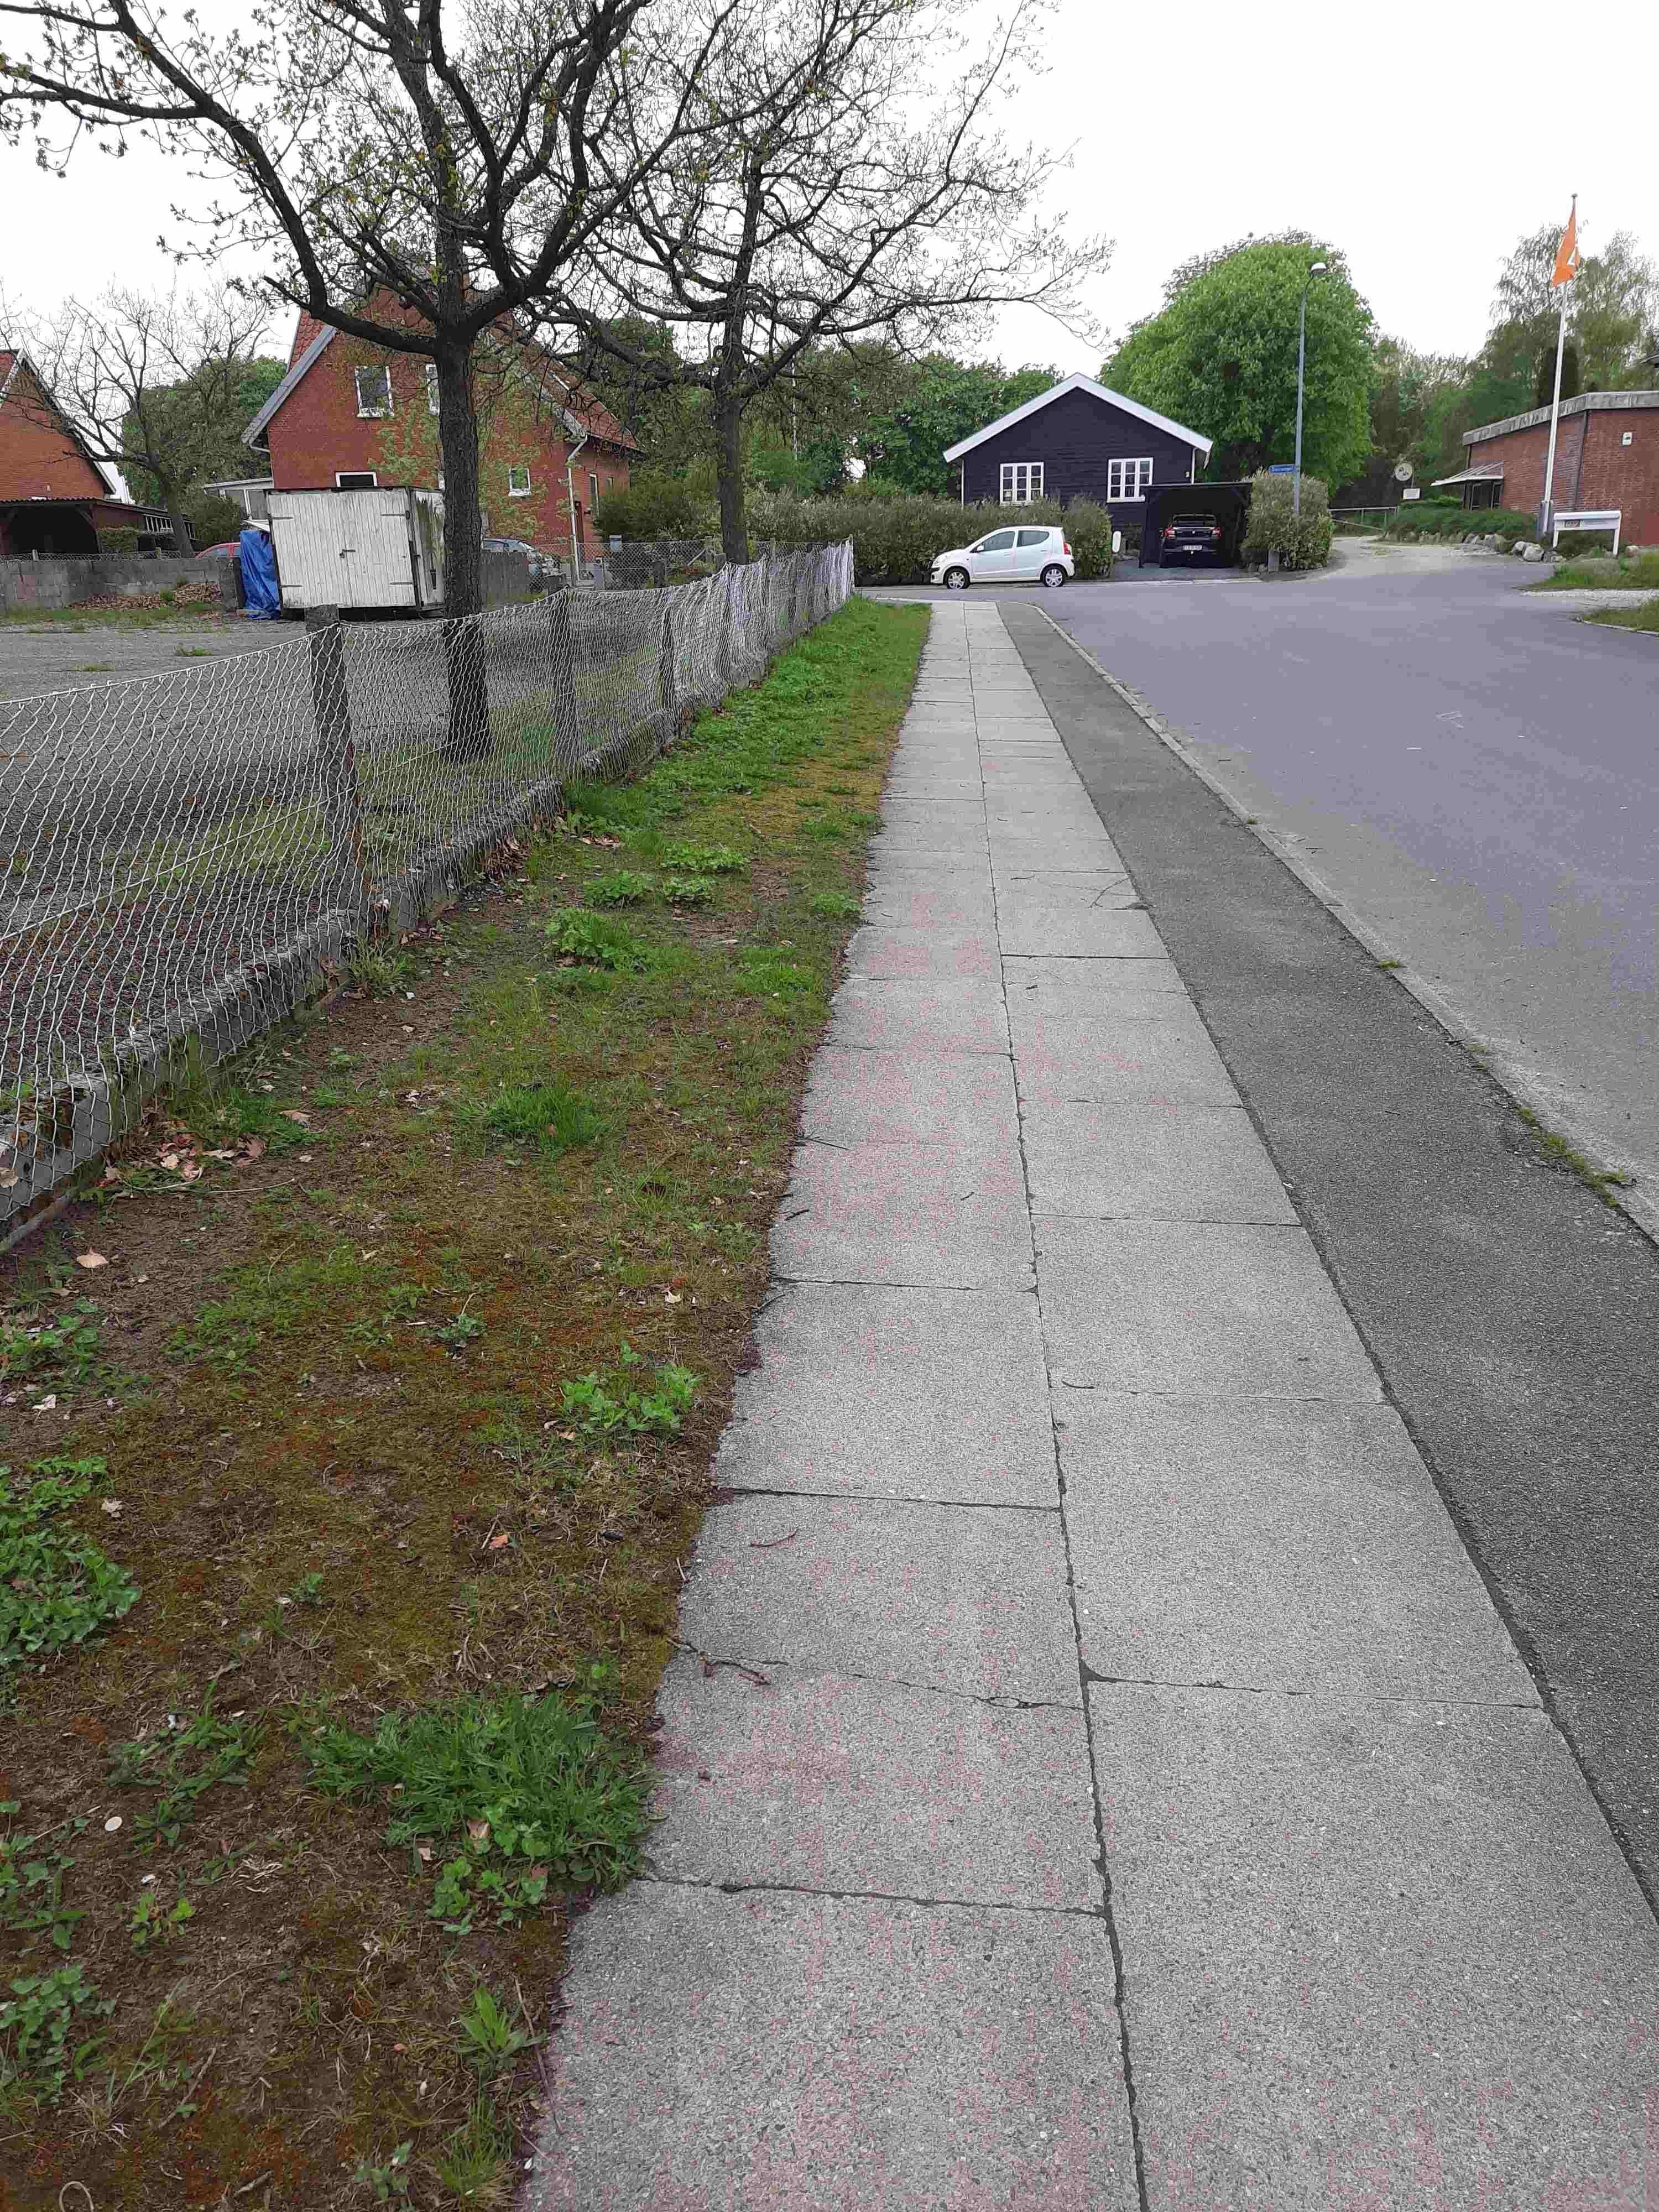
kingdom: Fungi
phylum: Ascomycota
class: Pezizomycetes
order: Pezizales
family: Helvellaceae
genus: Helvella
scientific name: Helvella acetabulum
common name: pokal-foldhat
